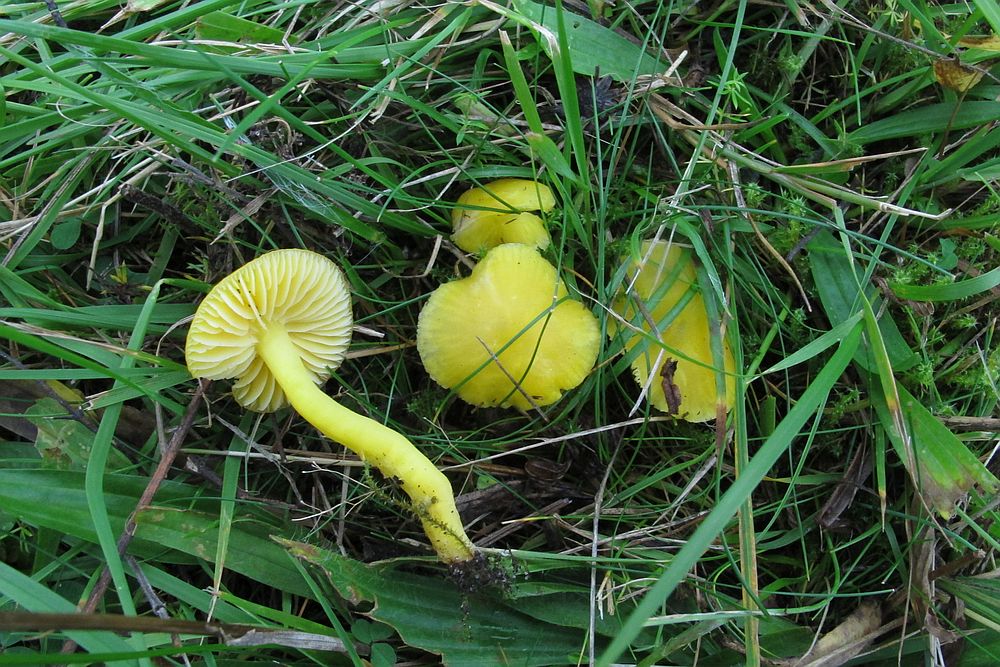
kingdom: Fungi
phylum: Basidiomycota
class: Agaricomycetes
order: Agaricales
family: Hygrophoraceae
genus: Hygrocybe
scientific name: Hygrocybe ceracea
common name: voksgul vokshat
